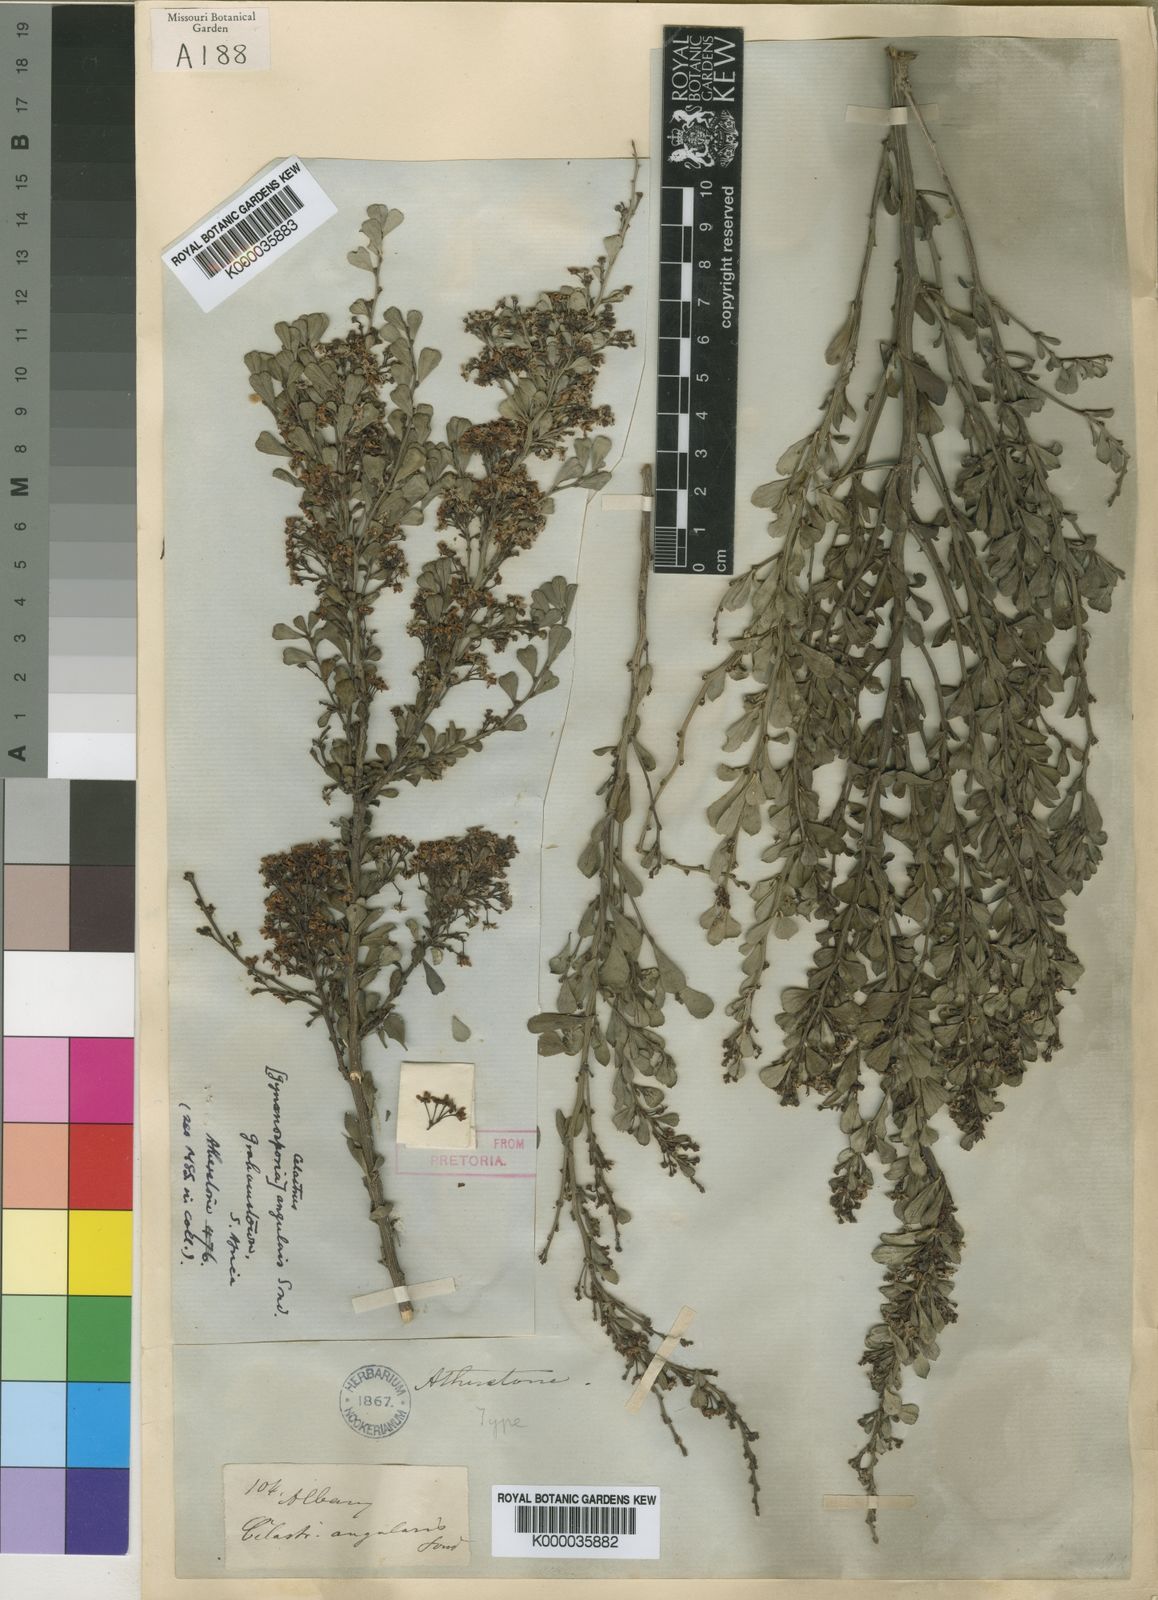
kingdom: Plantae
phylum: Tracheophyta
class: Magnoliopsida
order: Celastrales
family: Celastraceae
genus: Gymnosporia
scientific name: Gymnosporia heterophylla
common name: Angle-stem spikethorn
